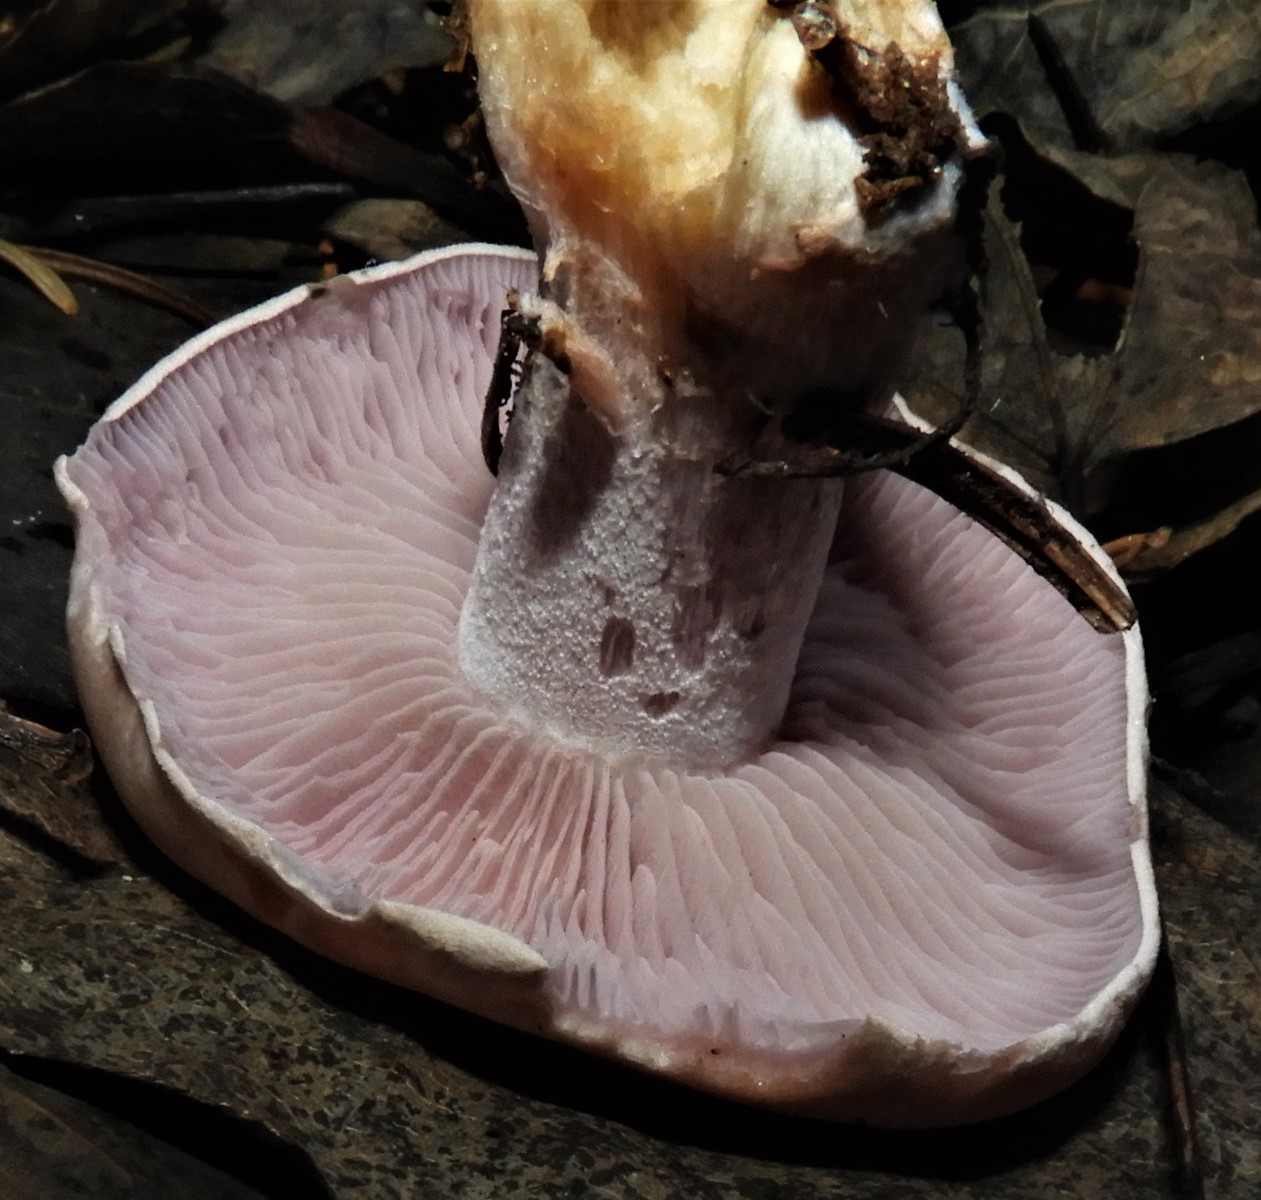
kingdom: Fungi
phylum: Basidiomycota
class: Agaricomycetes
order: Agaricales
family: Tricholomataceae
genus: Lepista
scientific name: Lepista nuda
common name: violet hekseringshat
